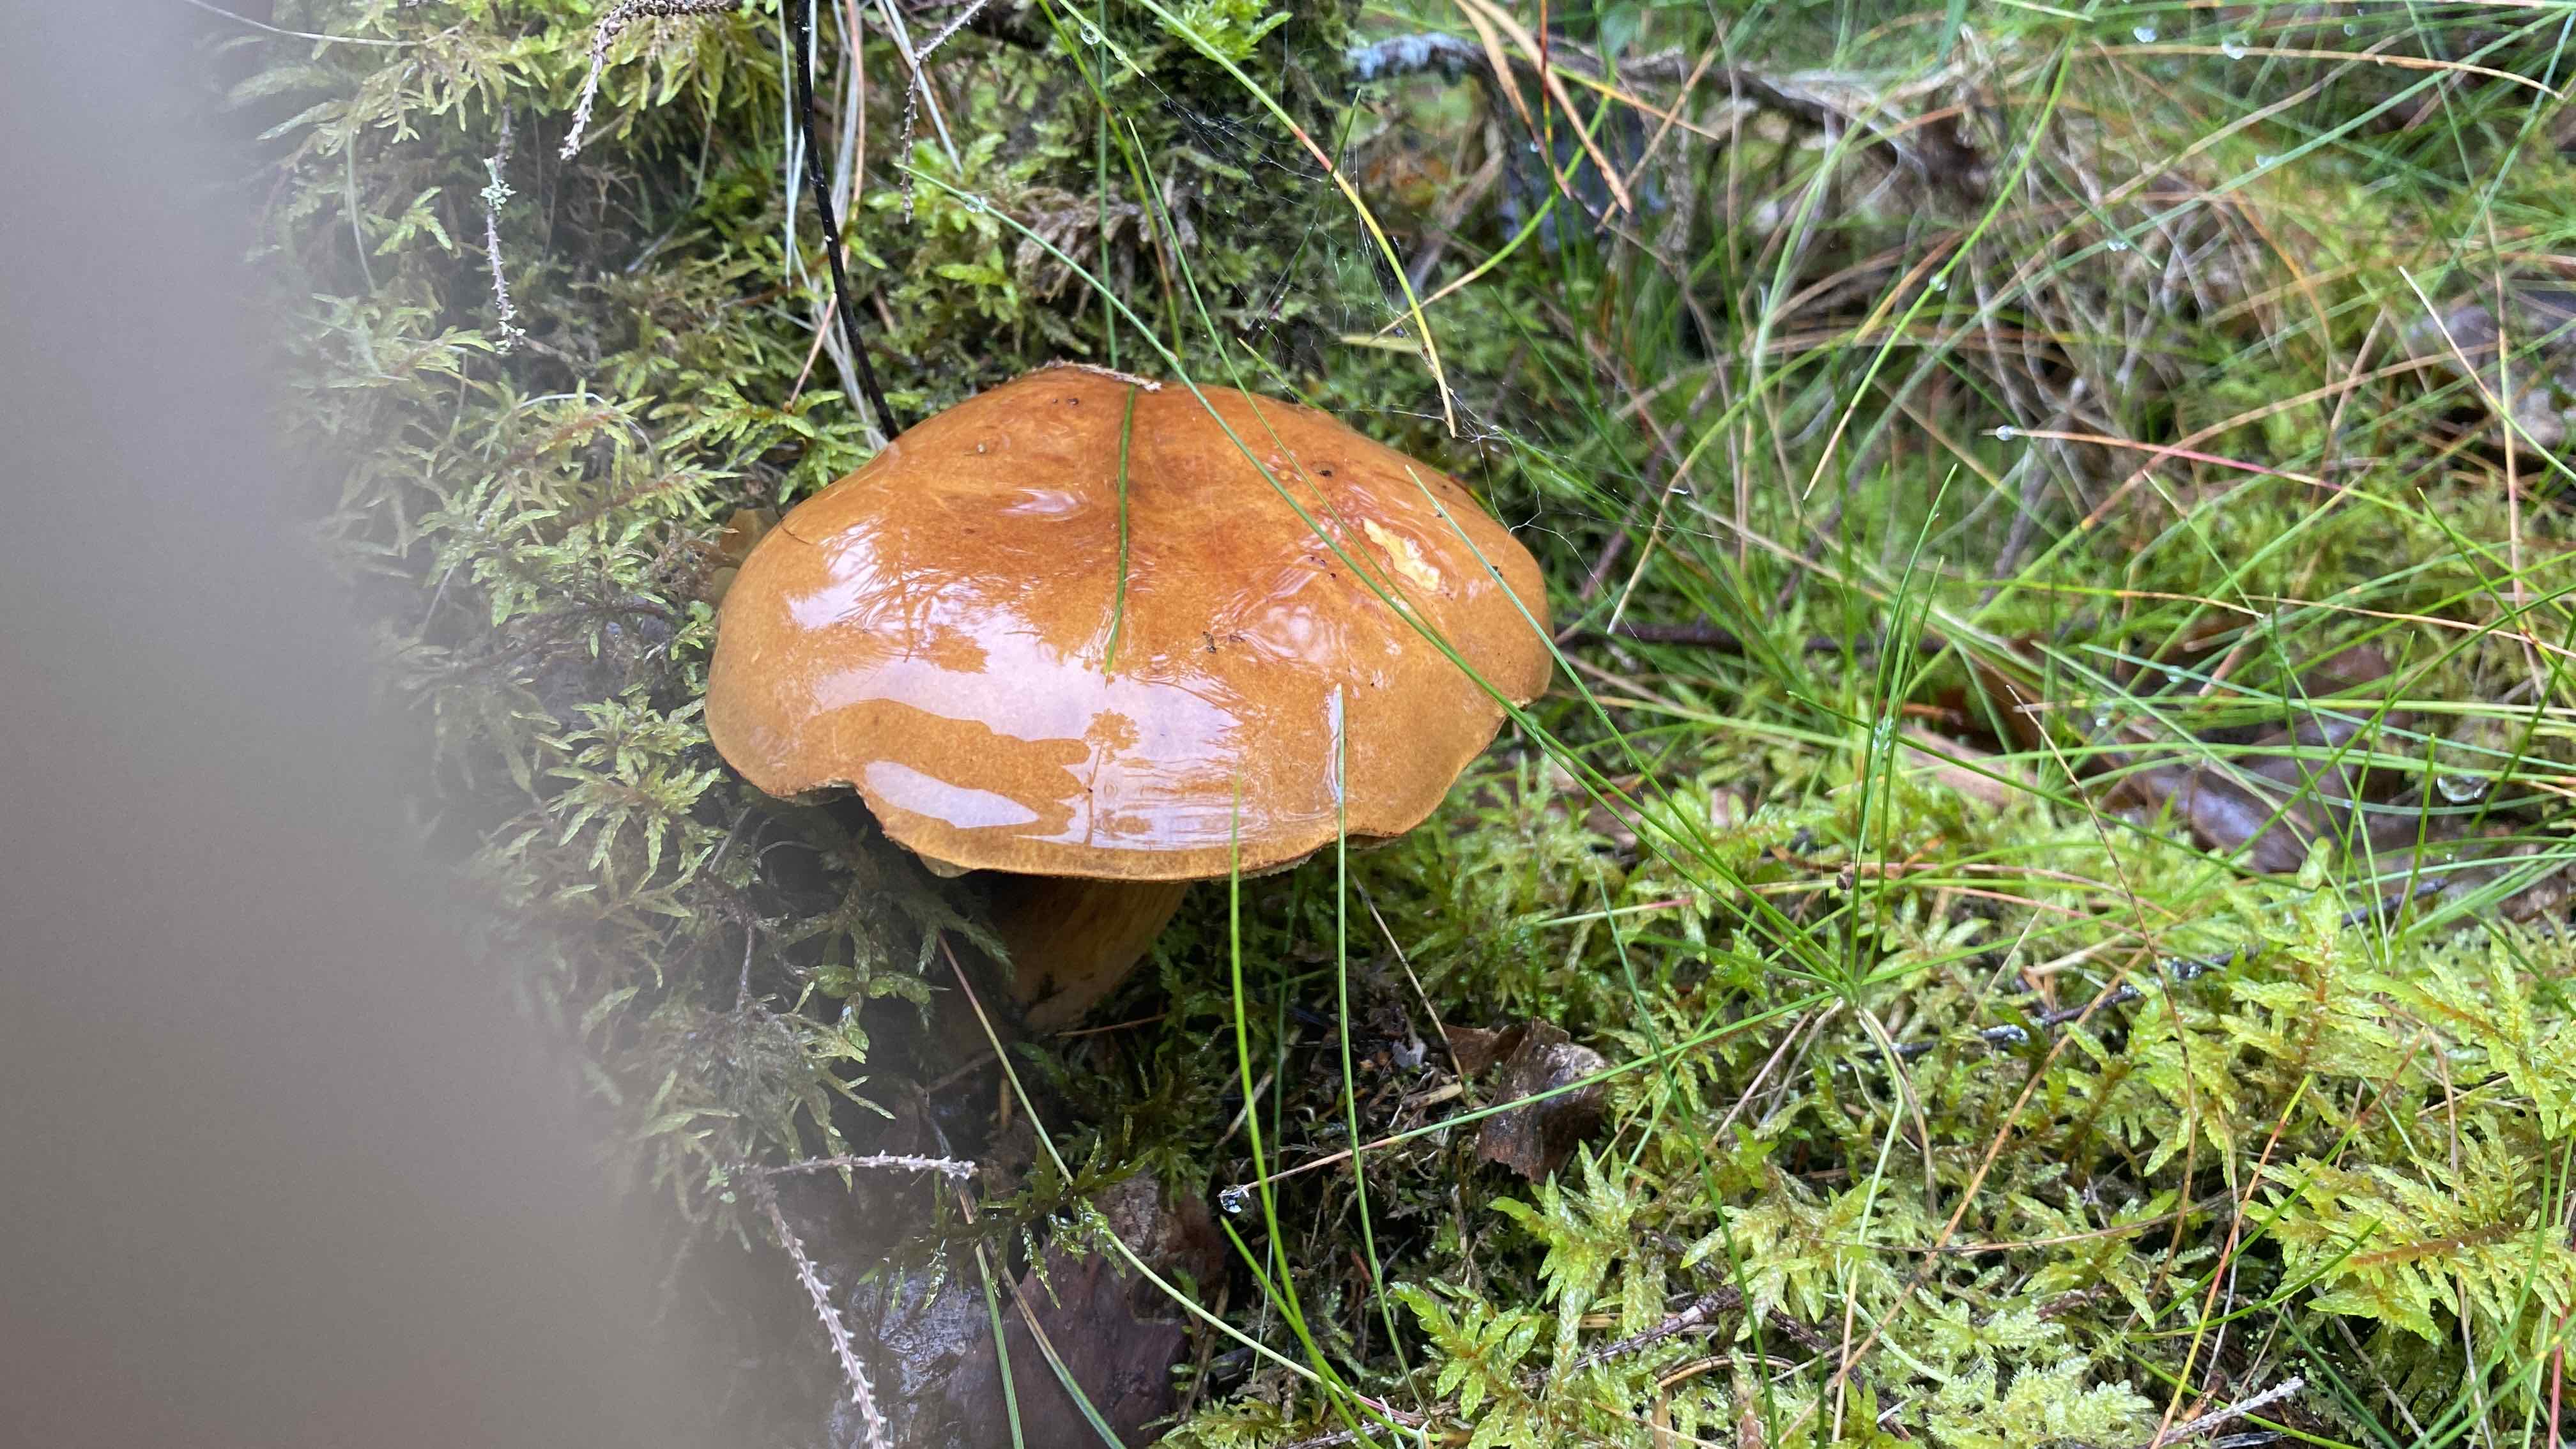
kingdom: Fungi
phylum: Basidiomycota
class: Agaricomycetes
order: Boletales
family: Suillaceae
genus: Suillus
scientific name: Suillus luteus
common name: brungul slimrørhat
